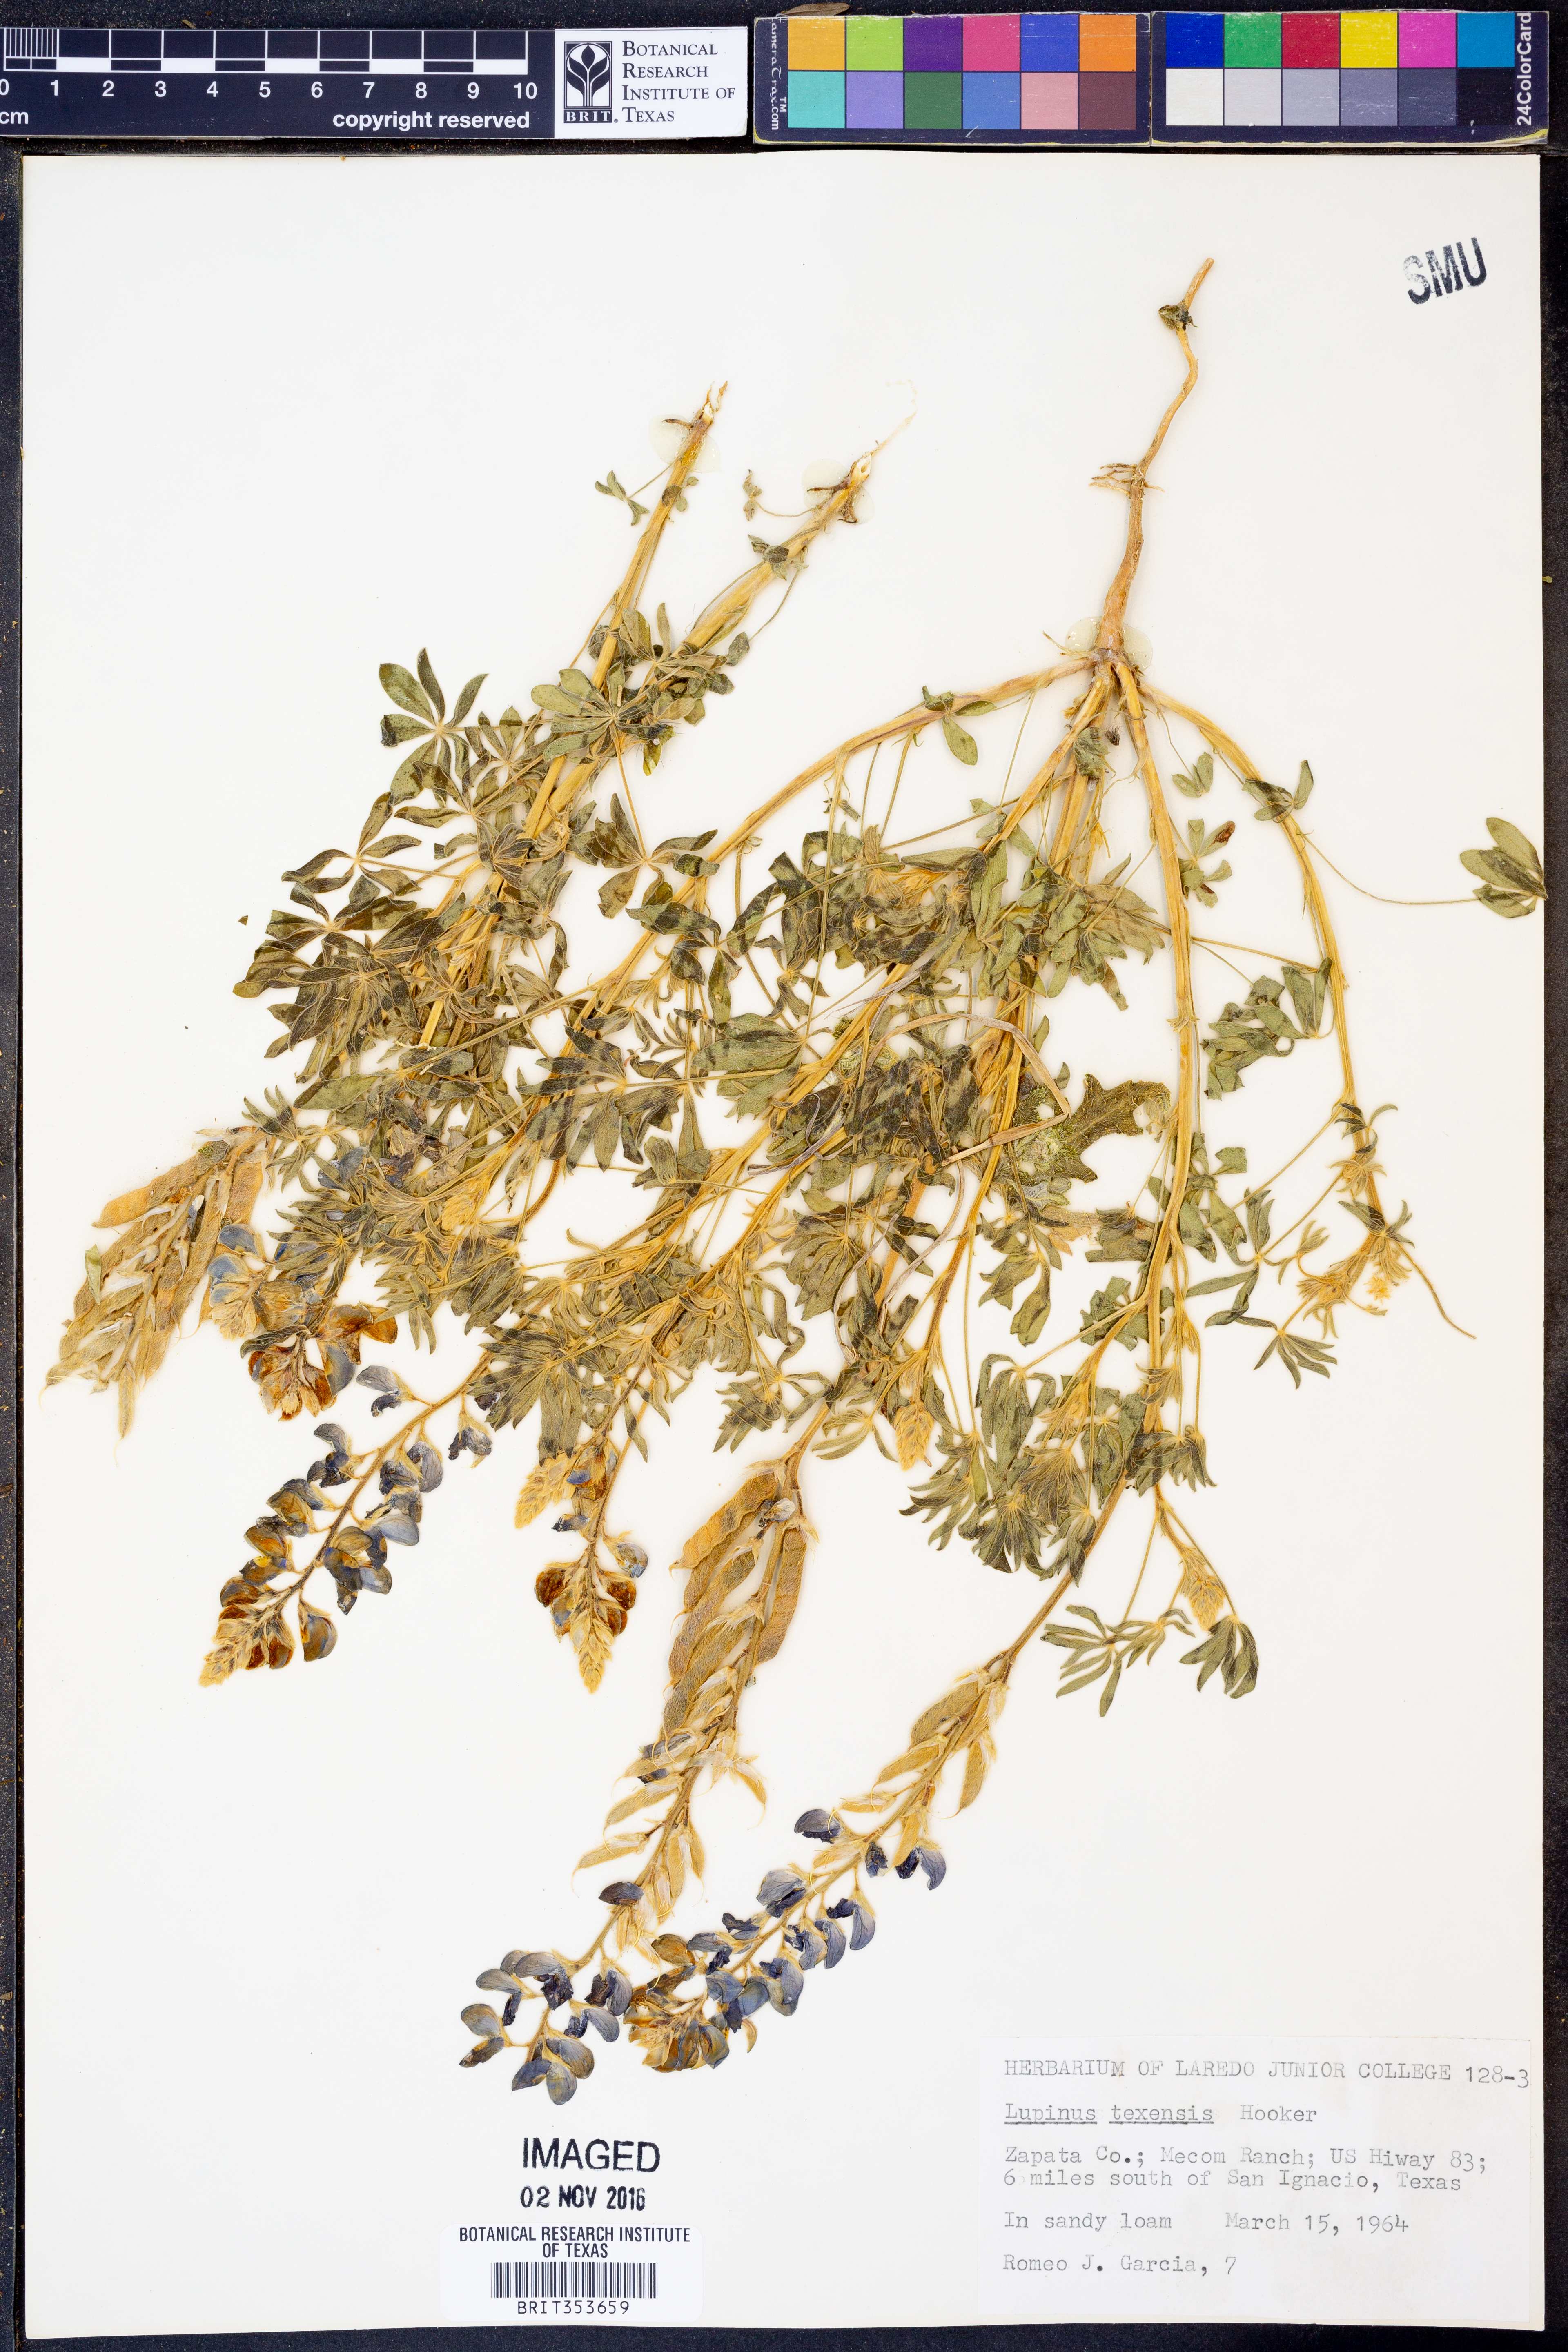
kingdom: Plantae
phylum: Tracheophyta
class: Magnoliopsida
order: Fabales
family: Fabaceae
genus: Lupinus
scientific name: Lupinus texensis
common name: Texas bluebonnet
